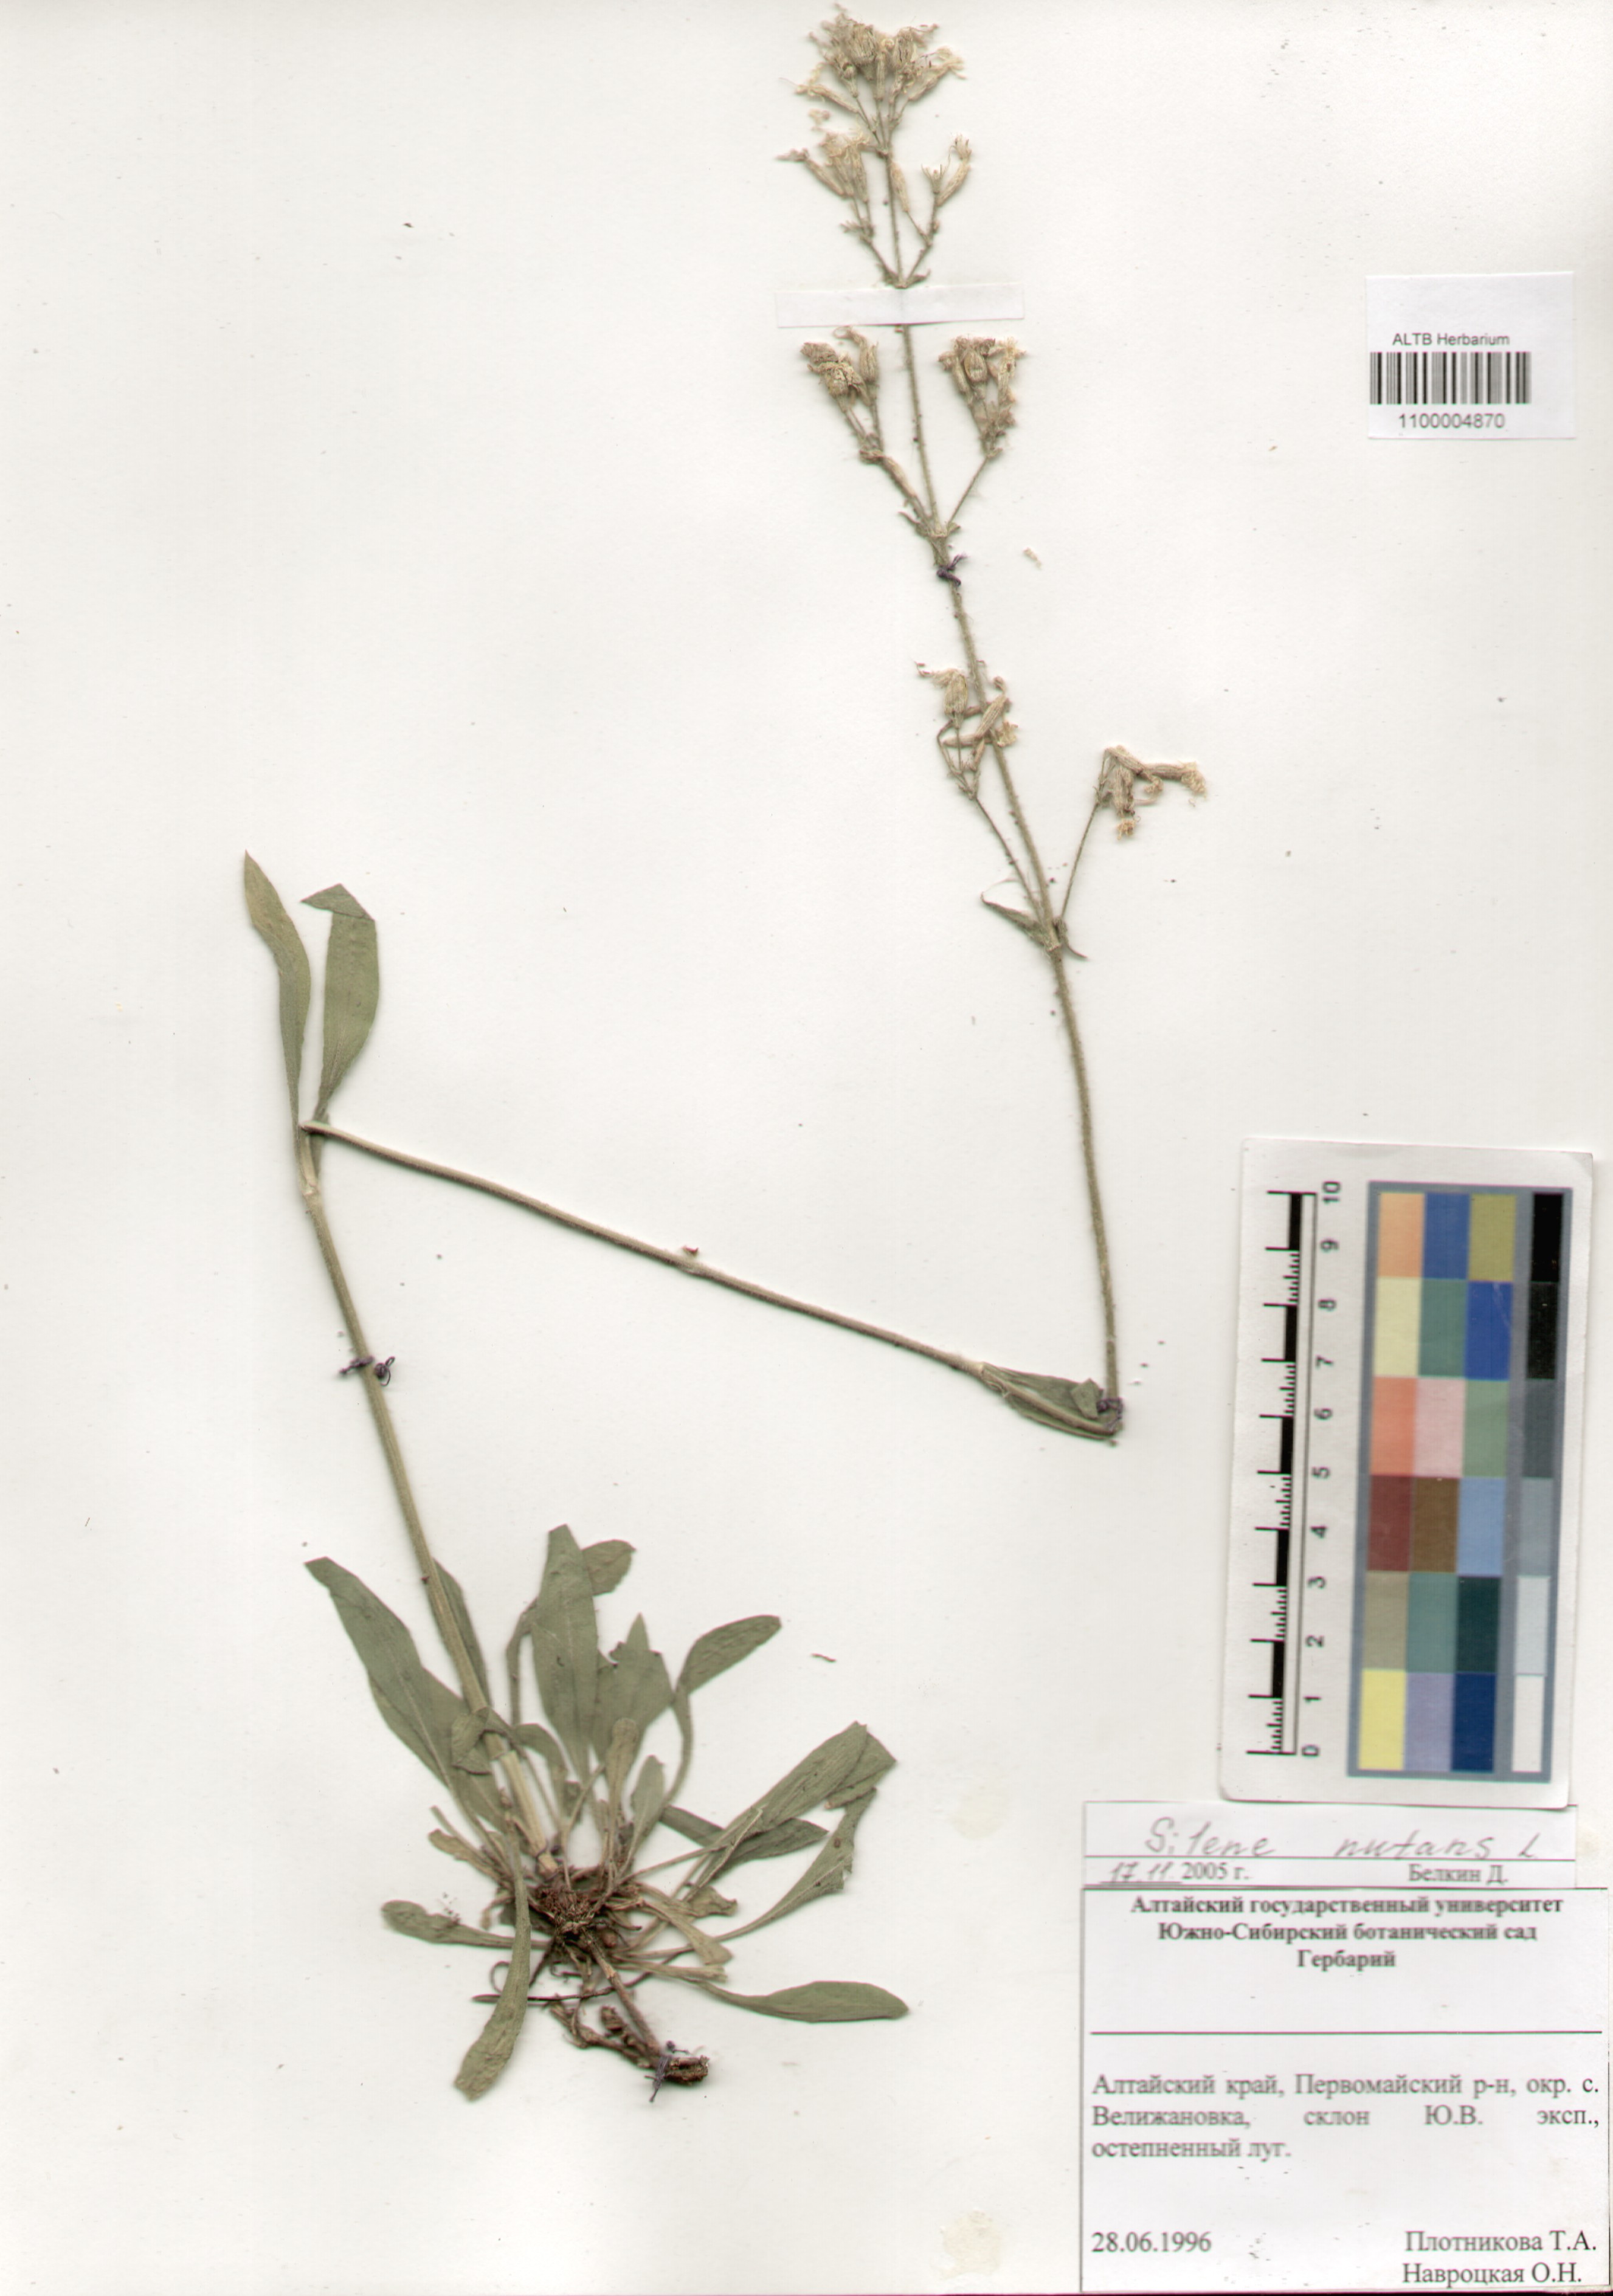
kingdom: Plantae
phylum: Tracheophyta
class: Magnoliopsida
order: Caryophyllales
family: Caryophyllaceae
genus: Silene
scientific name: Silene nutans
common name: Nottingham catchfly
